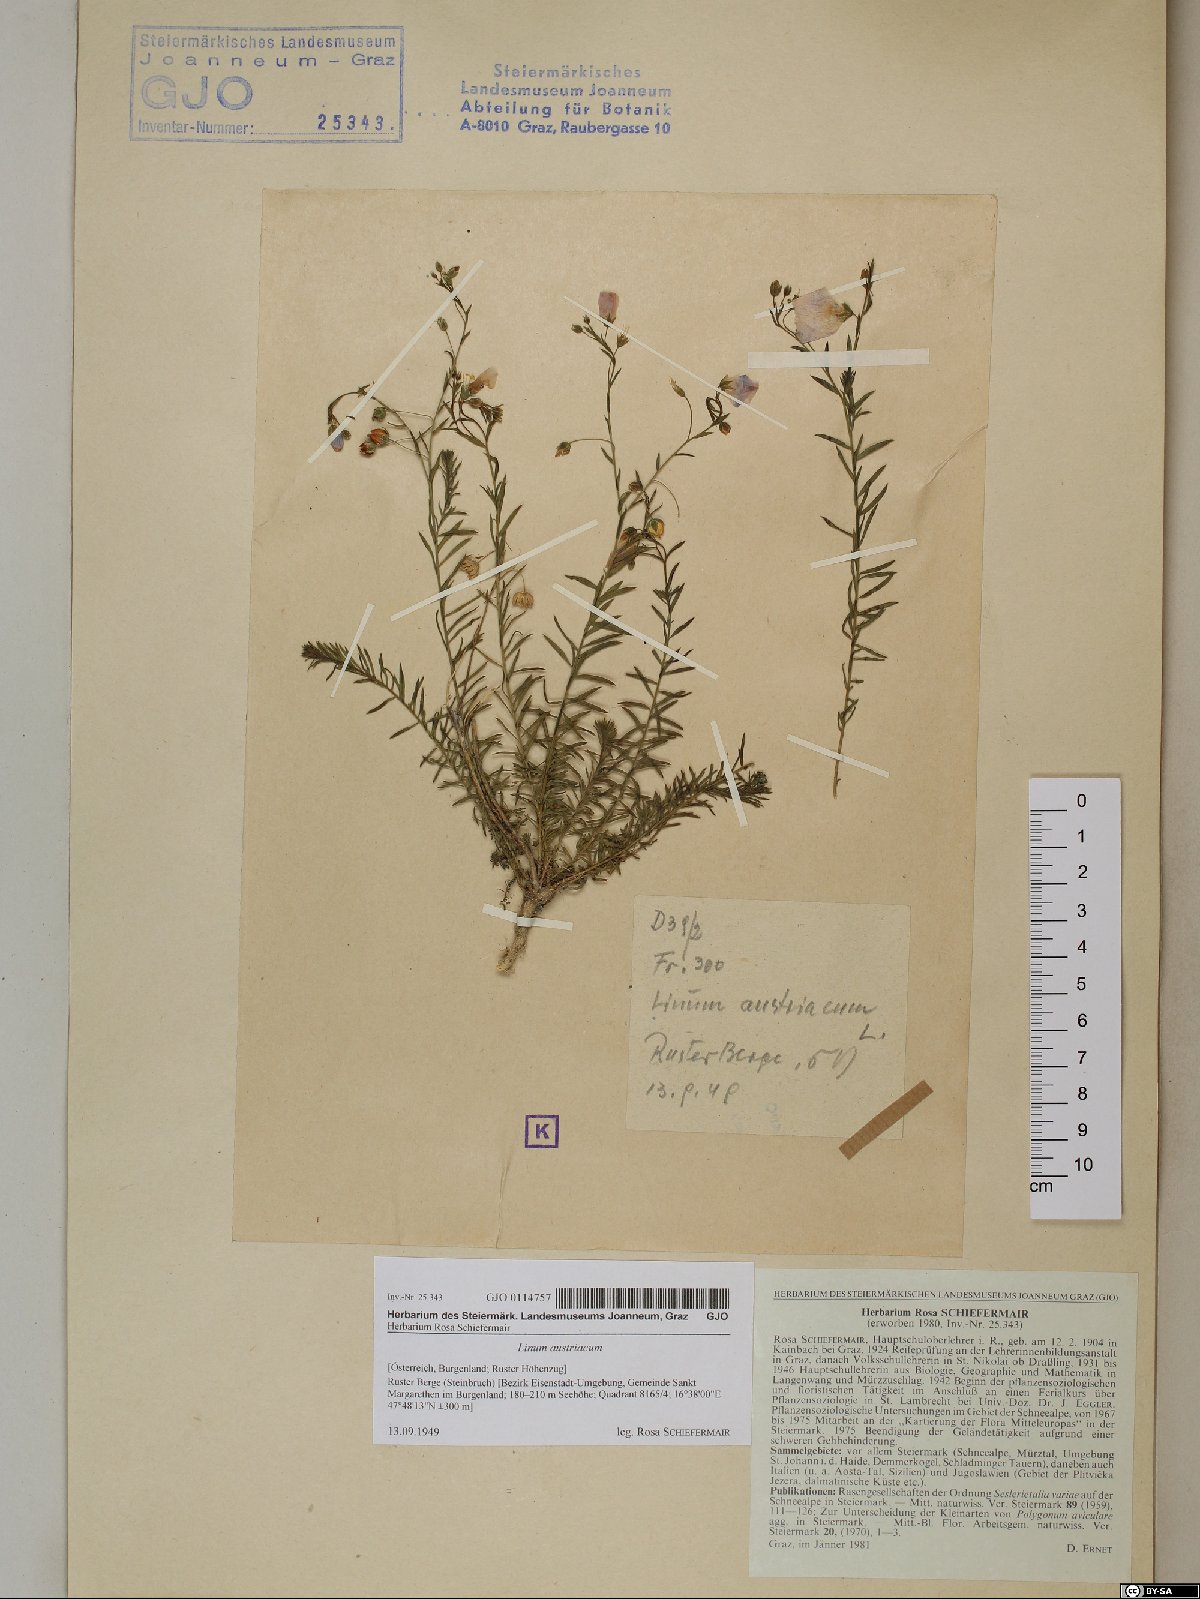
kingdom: Plantae
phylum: Tracheophyta
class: Magnoliopsida
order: Malpighiales
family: Linaceae
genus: Linum
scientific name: Linum austriacum
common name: Austrian flax
